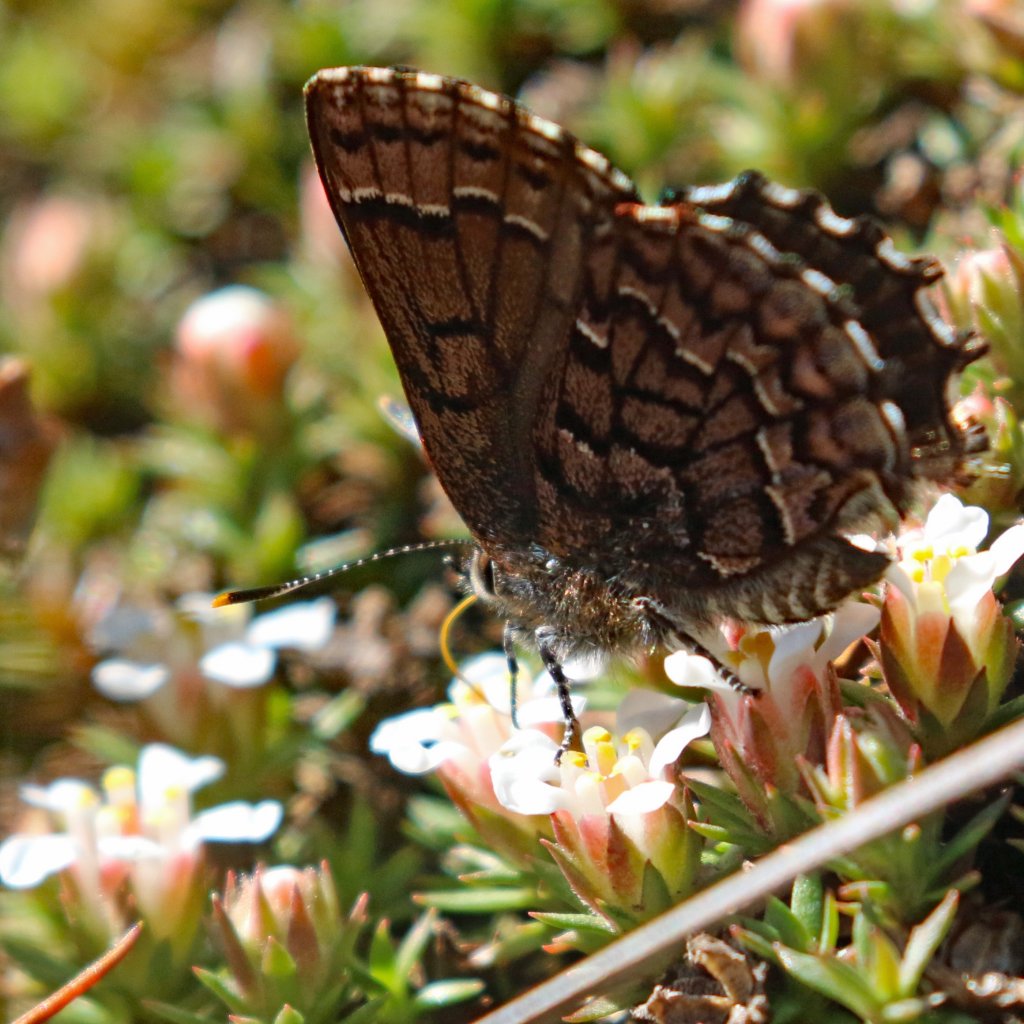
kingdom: Animalia
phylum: Arthropoda
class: Insecta
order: Lepidoptera
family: Lycaenidae
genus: Incisalia
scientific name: Incisalia niphon
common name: Eastern Pine Elfin
